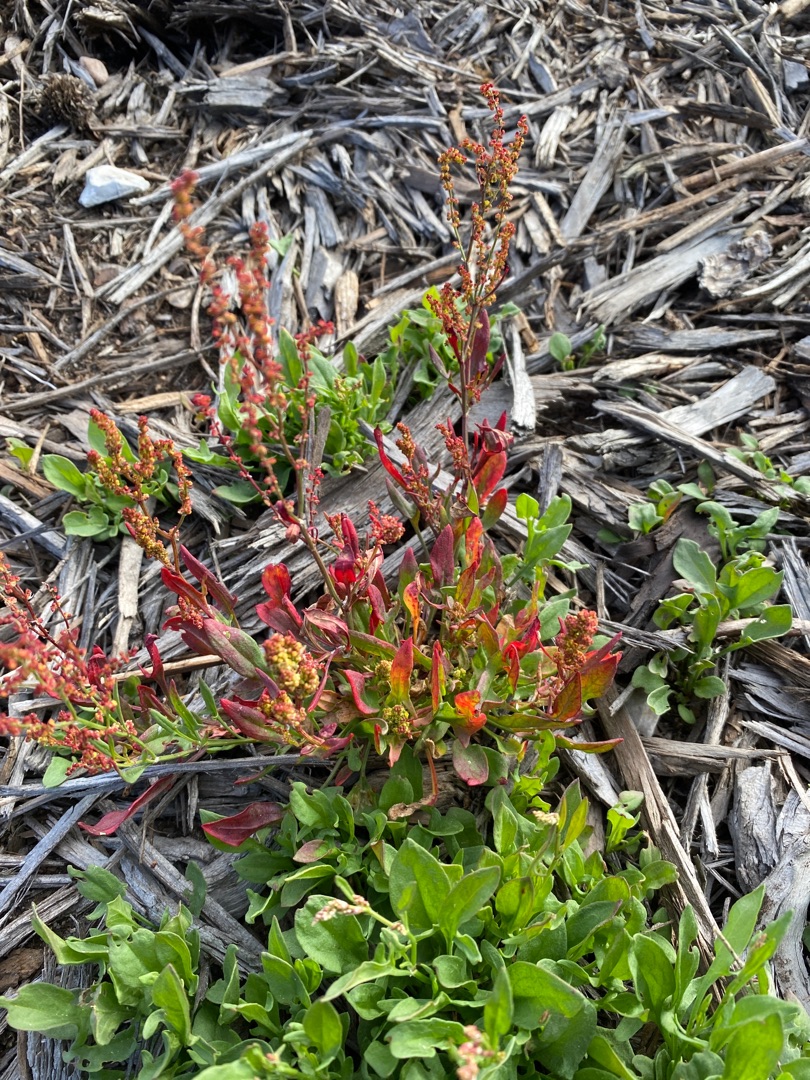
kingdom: Plantae
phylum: Tracheophyta
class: Magnoliopsida
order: Caryophyllales
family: Polygonaceae
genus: Rumex
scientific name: Rumex acetosella
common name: Rødknæ
